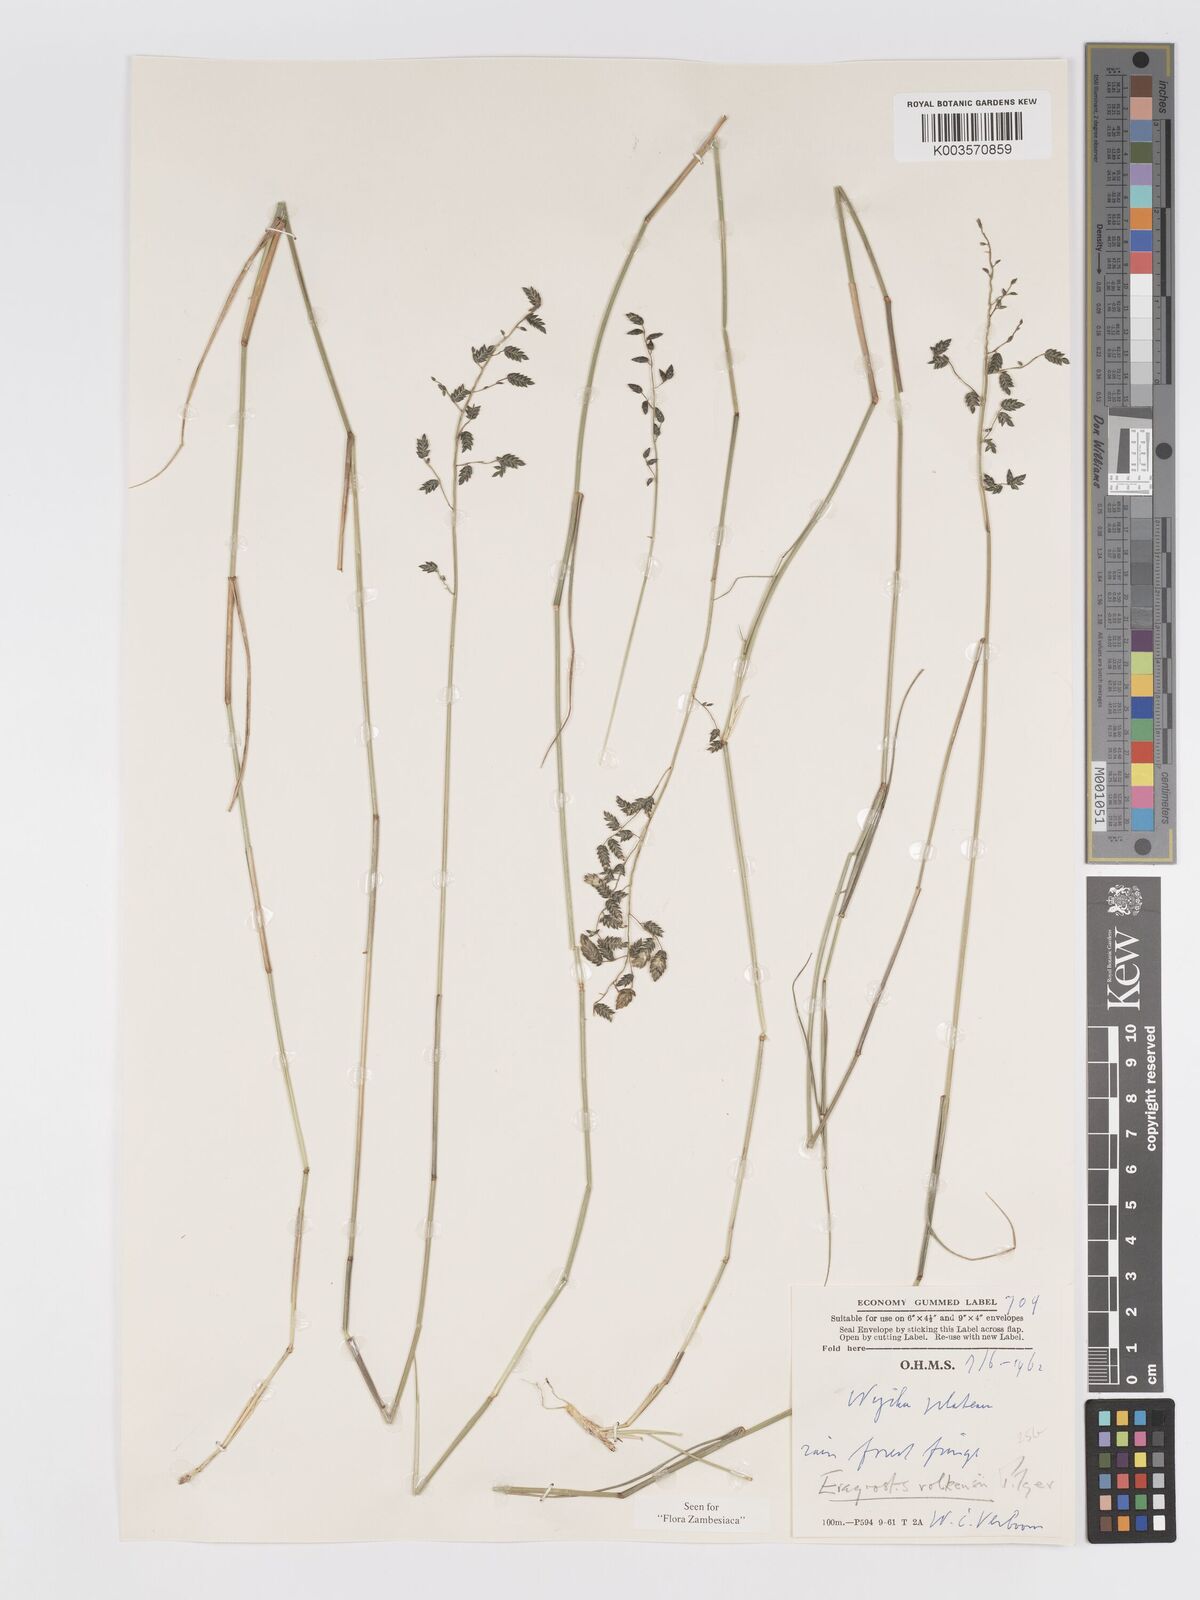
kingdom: Plantae
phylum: Tracheophyta
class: Liliopsida
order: Poales
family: Poaceae
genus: Eragrostis
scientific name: Eragrostis volkensii
